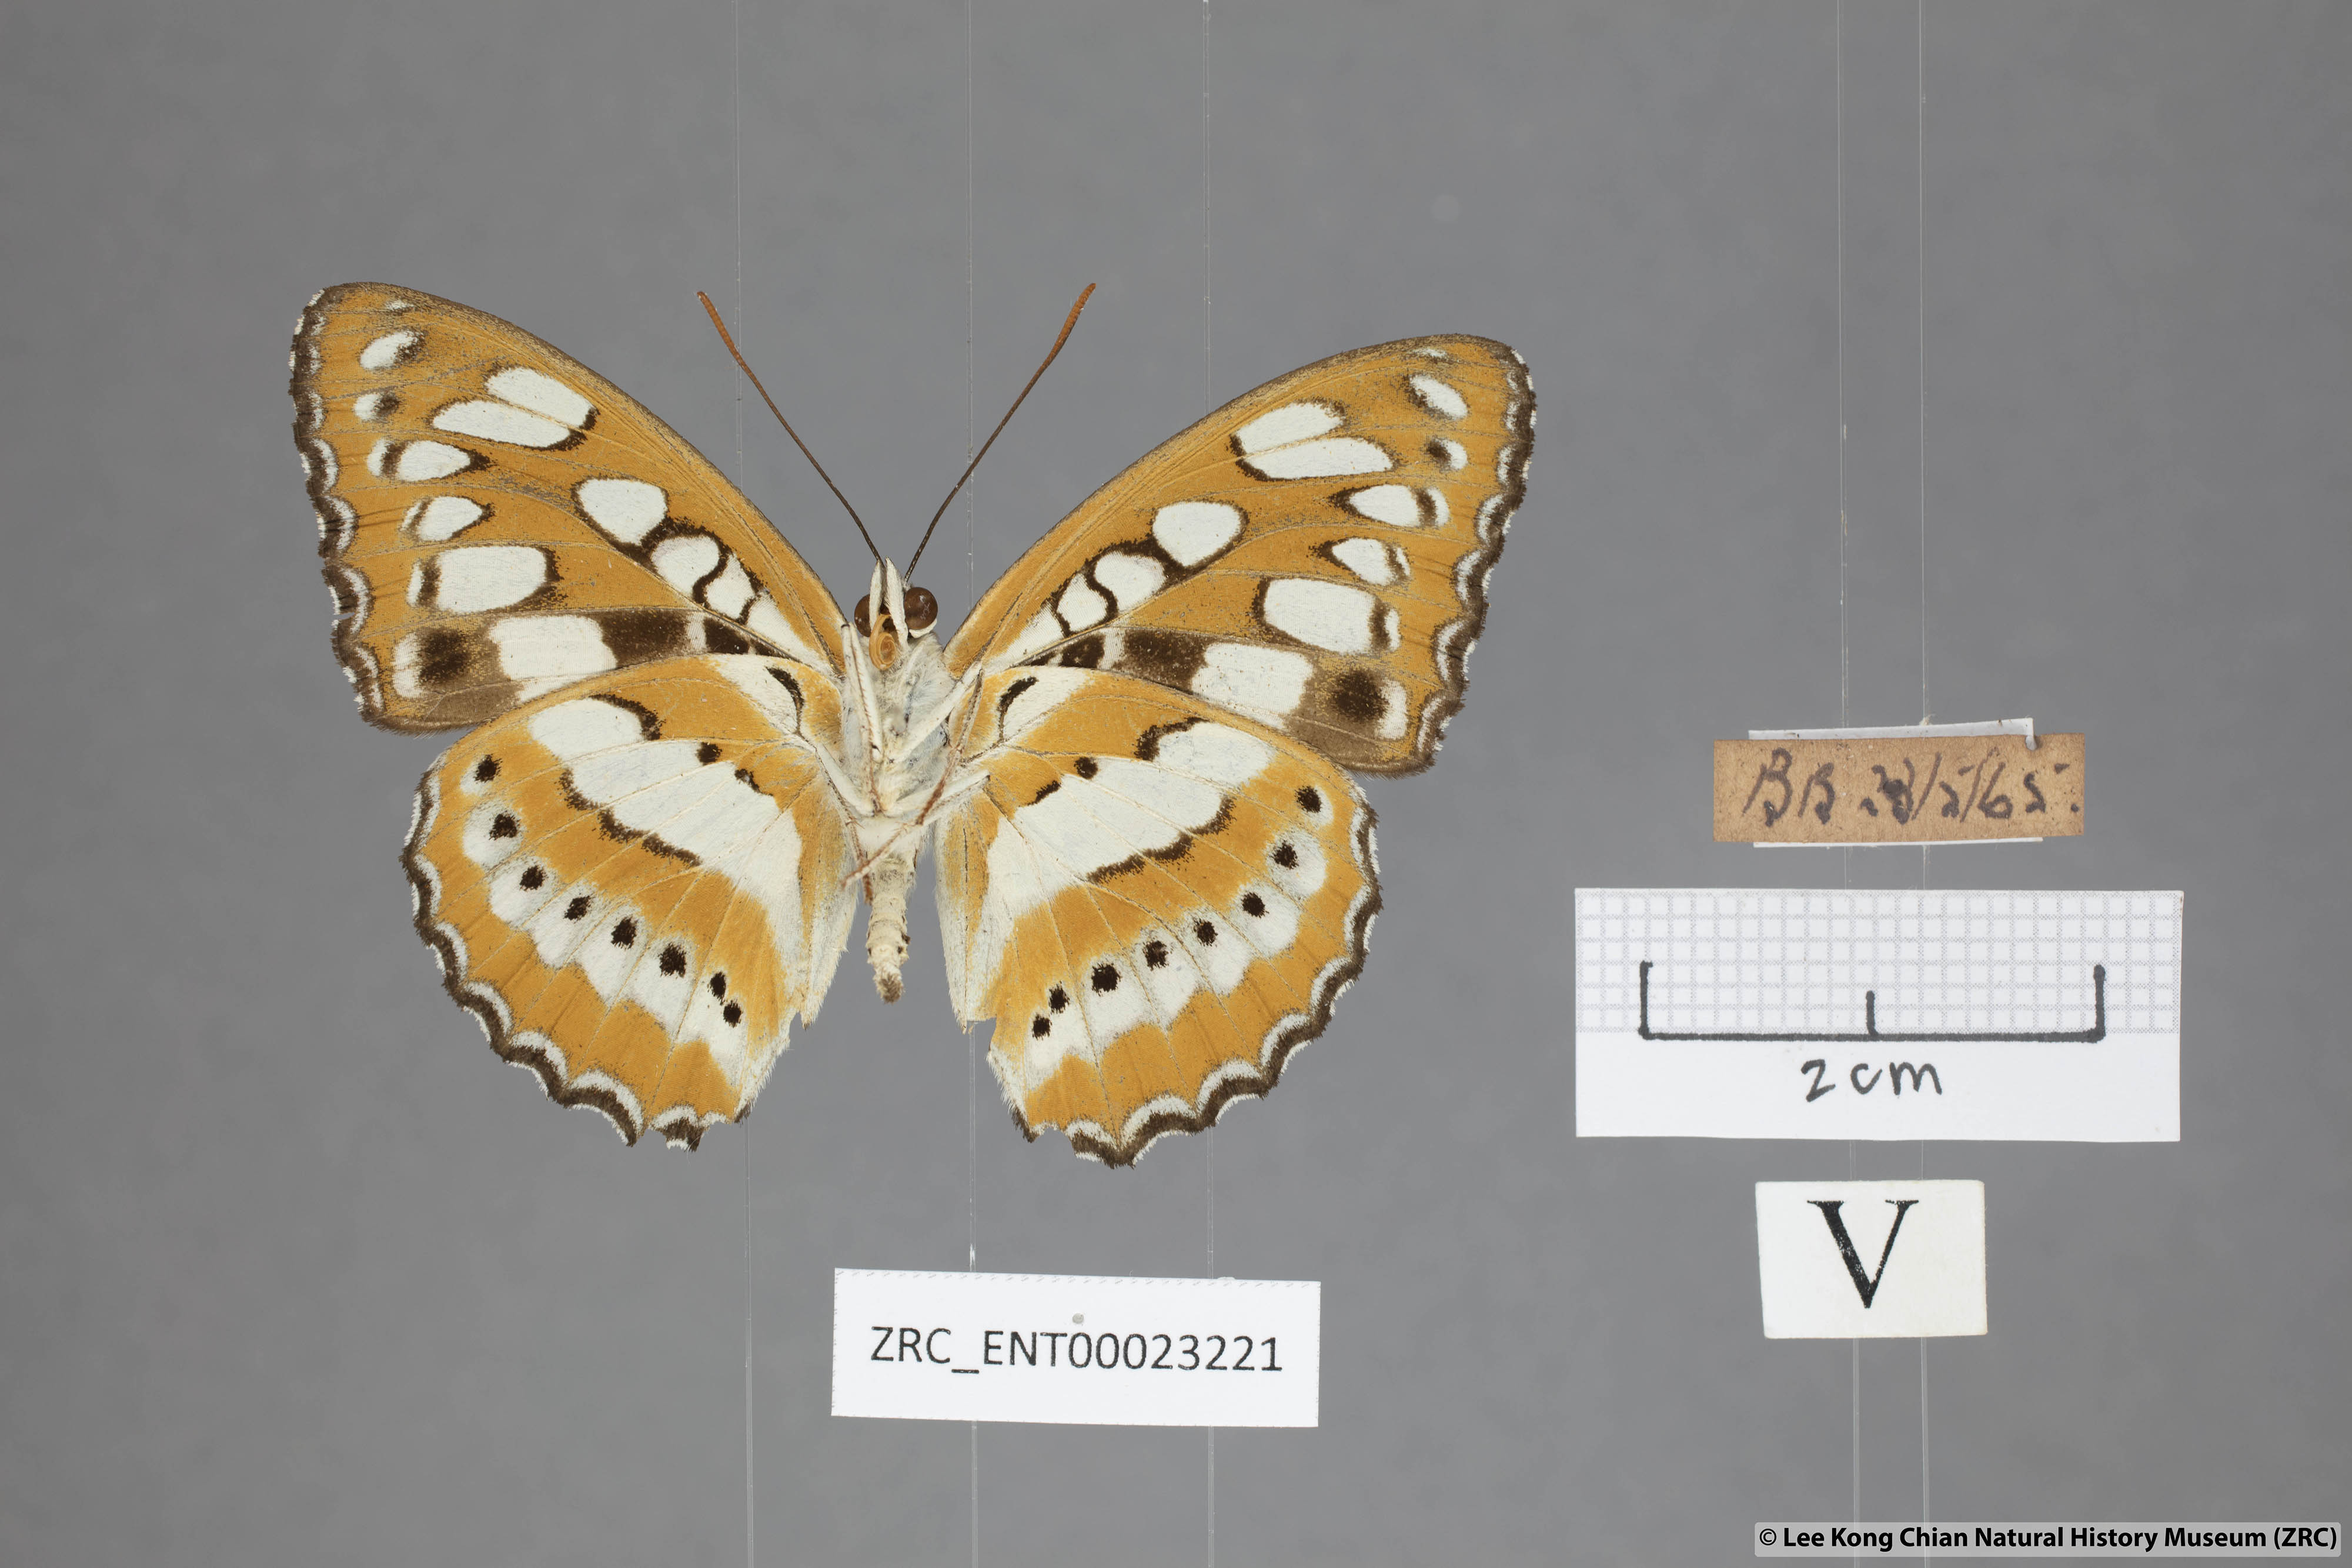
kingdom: Animalia
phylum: Arthropoda
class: Insecta
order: Lepidoptera
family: Nymphalidae
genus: Parathyma
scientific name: Parathyma perius
